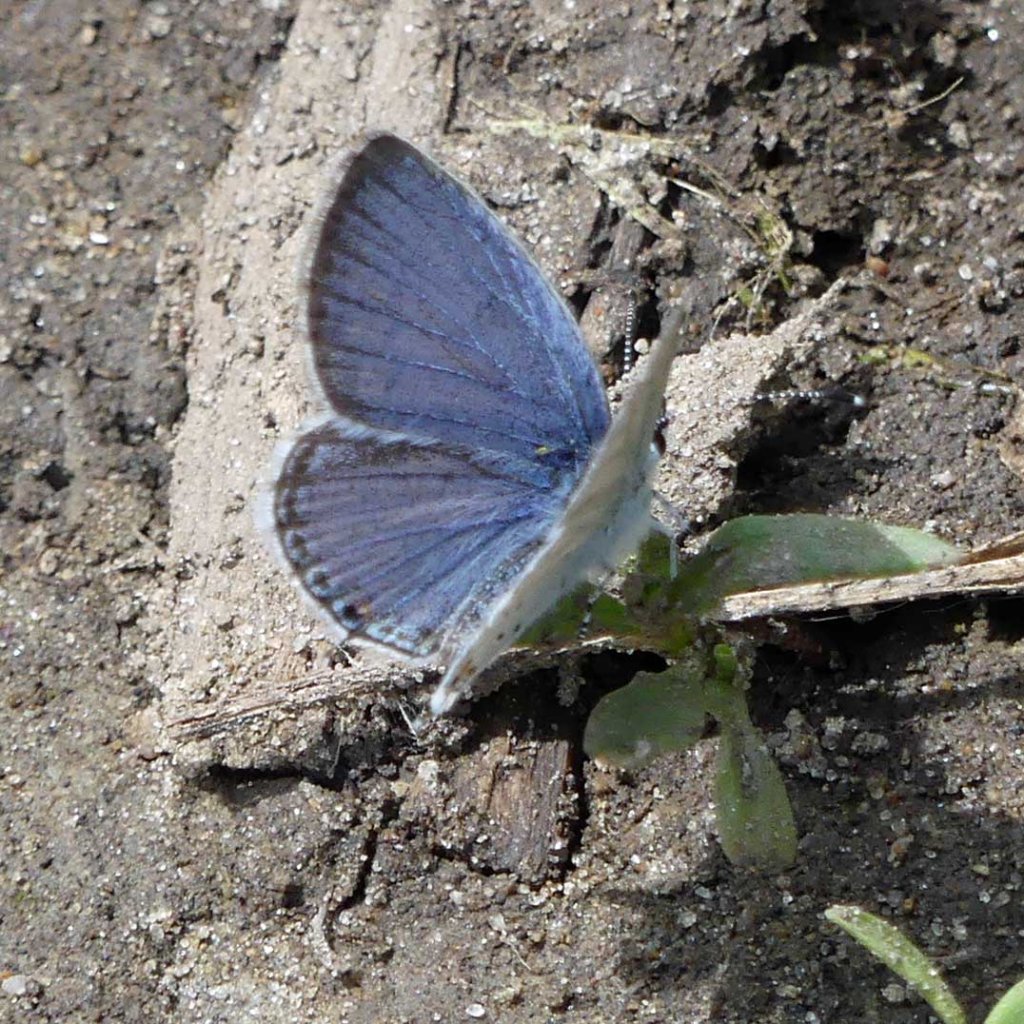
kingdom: Animalia
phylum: Arthropoda
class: Insecta
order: Lepidoptera
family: Lycaenidae
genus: Elkalyce
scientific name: Elkalyce comyntas
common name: Eastern Tailed-Blue
